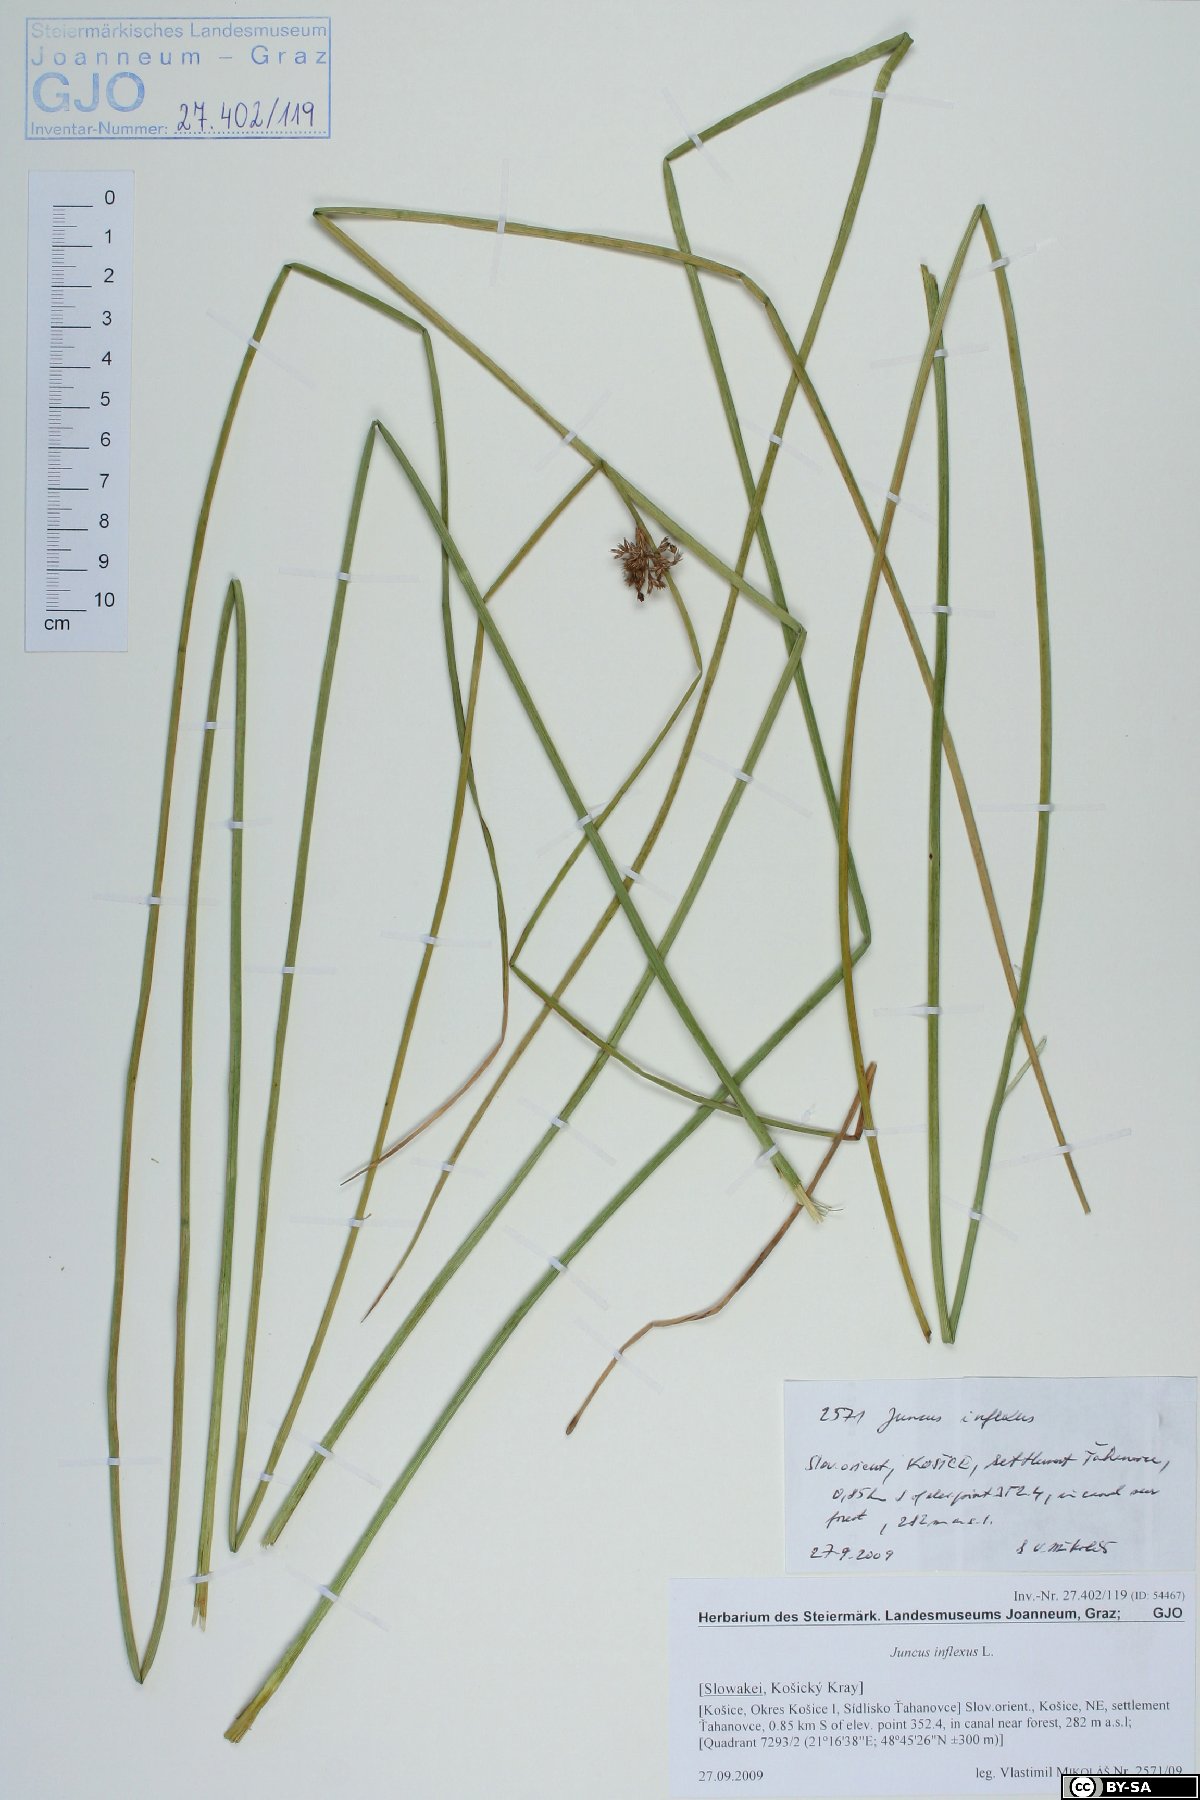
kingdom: Plantae
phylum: Tracheophyta
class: Liliopsida
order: Poales
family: Juncaceae
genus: Juncus
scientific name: Juncus inflexus
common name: Hard rush
